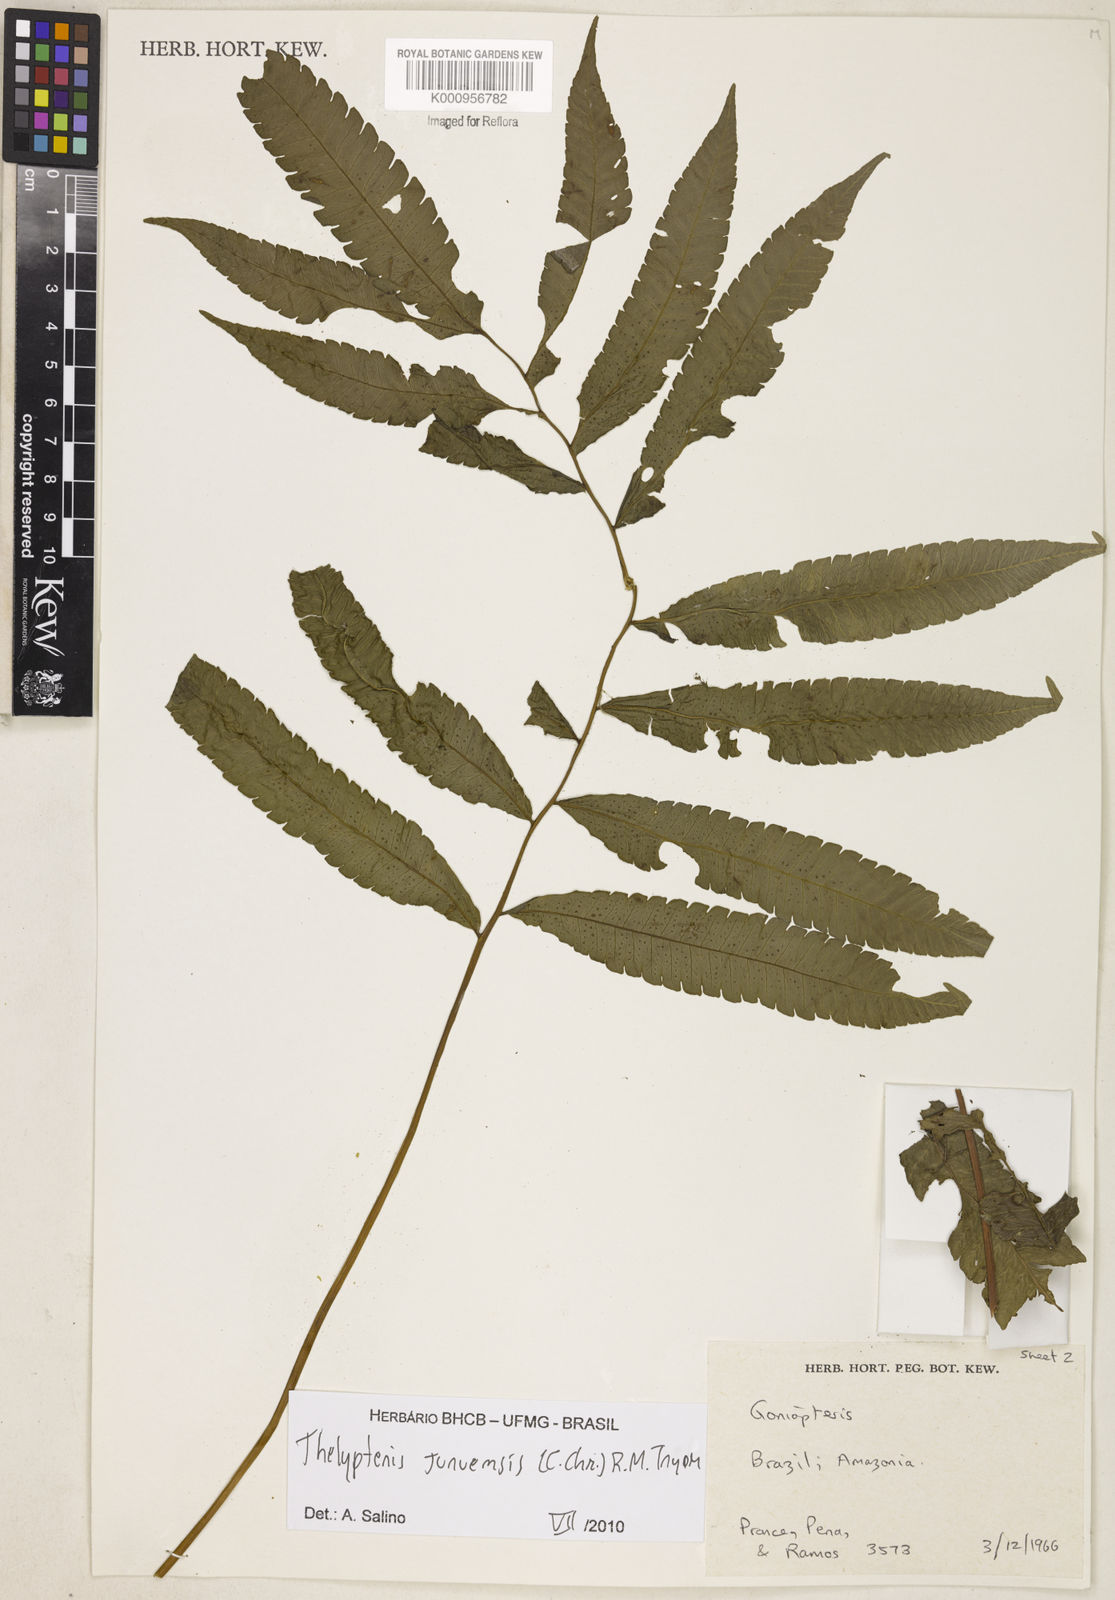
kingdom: Plantae
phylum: Tracheophyta
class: Polypodiopsida
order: Polypodiales
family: Thelypteridaceae
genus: Goniopteris
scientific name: Goniopteris juruensis
